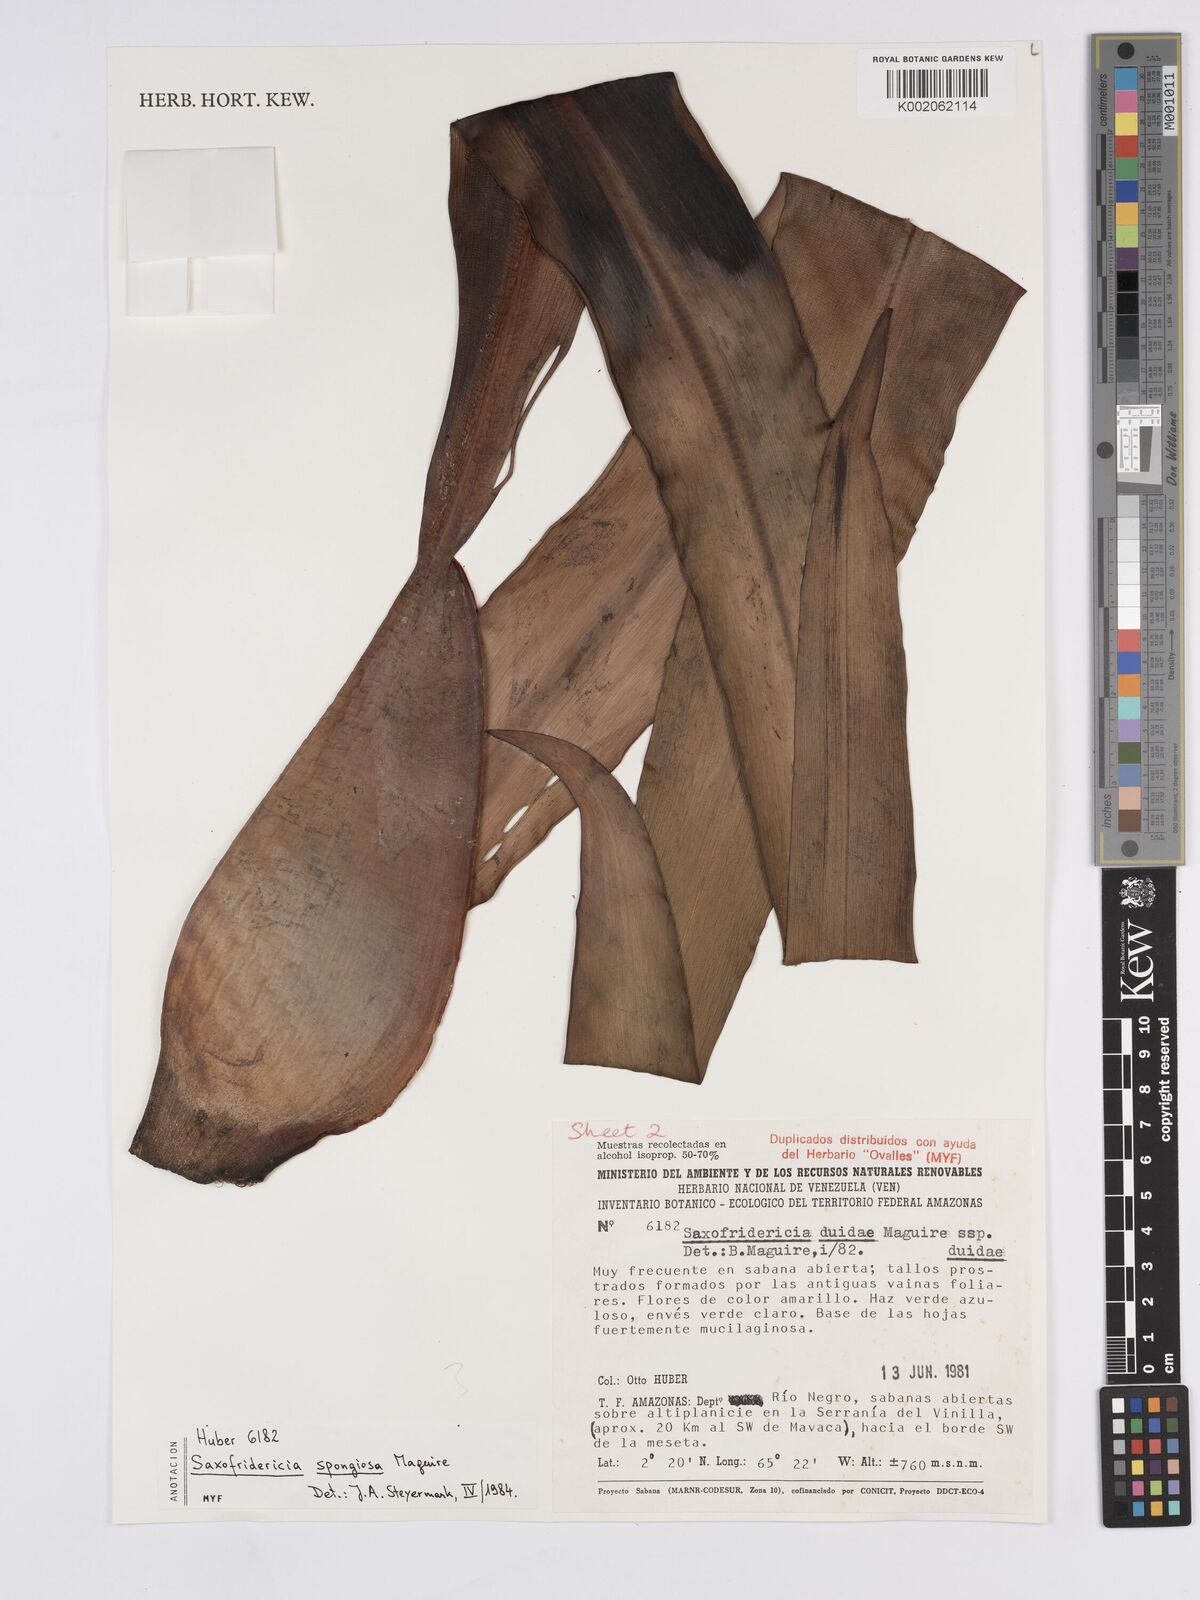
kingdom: Plantae
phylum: Tracheophyta
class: Liliopsida
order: Poales
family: Rapateaceae
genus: Saxofridericia
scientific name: Saxofridericia spongiosa
